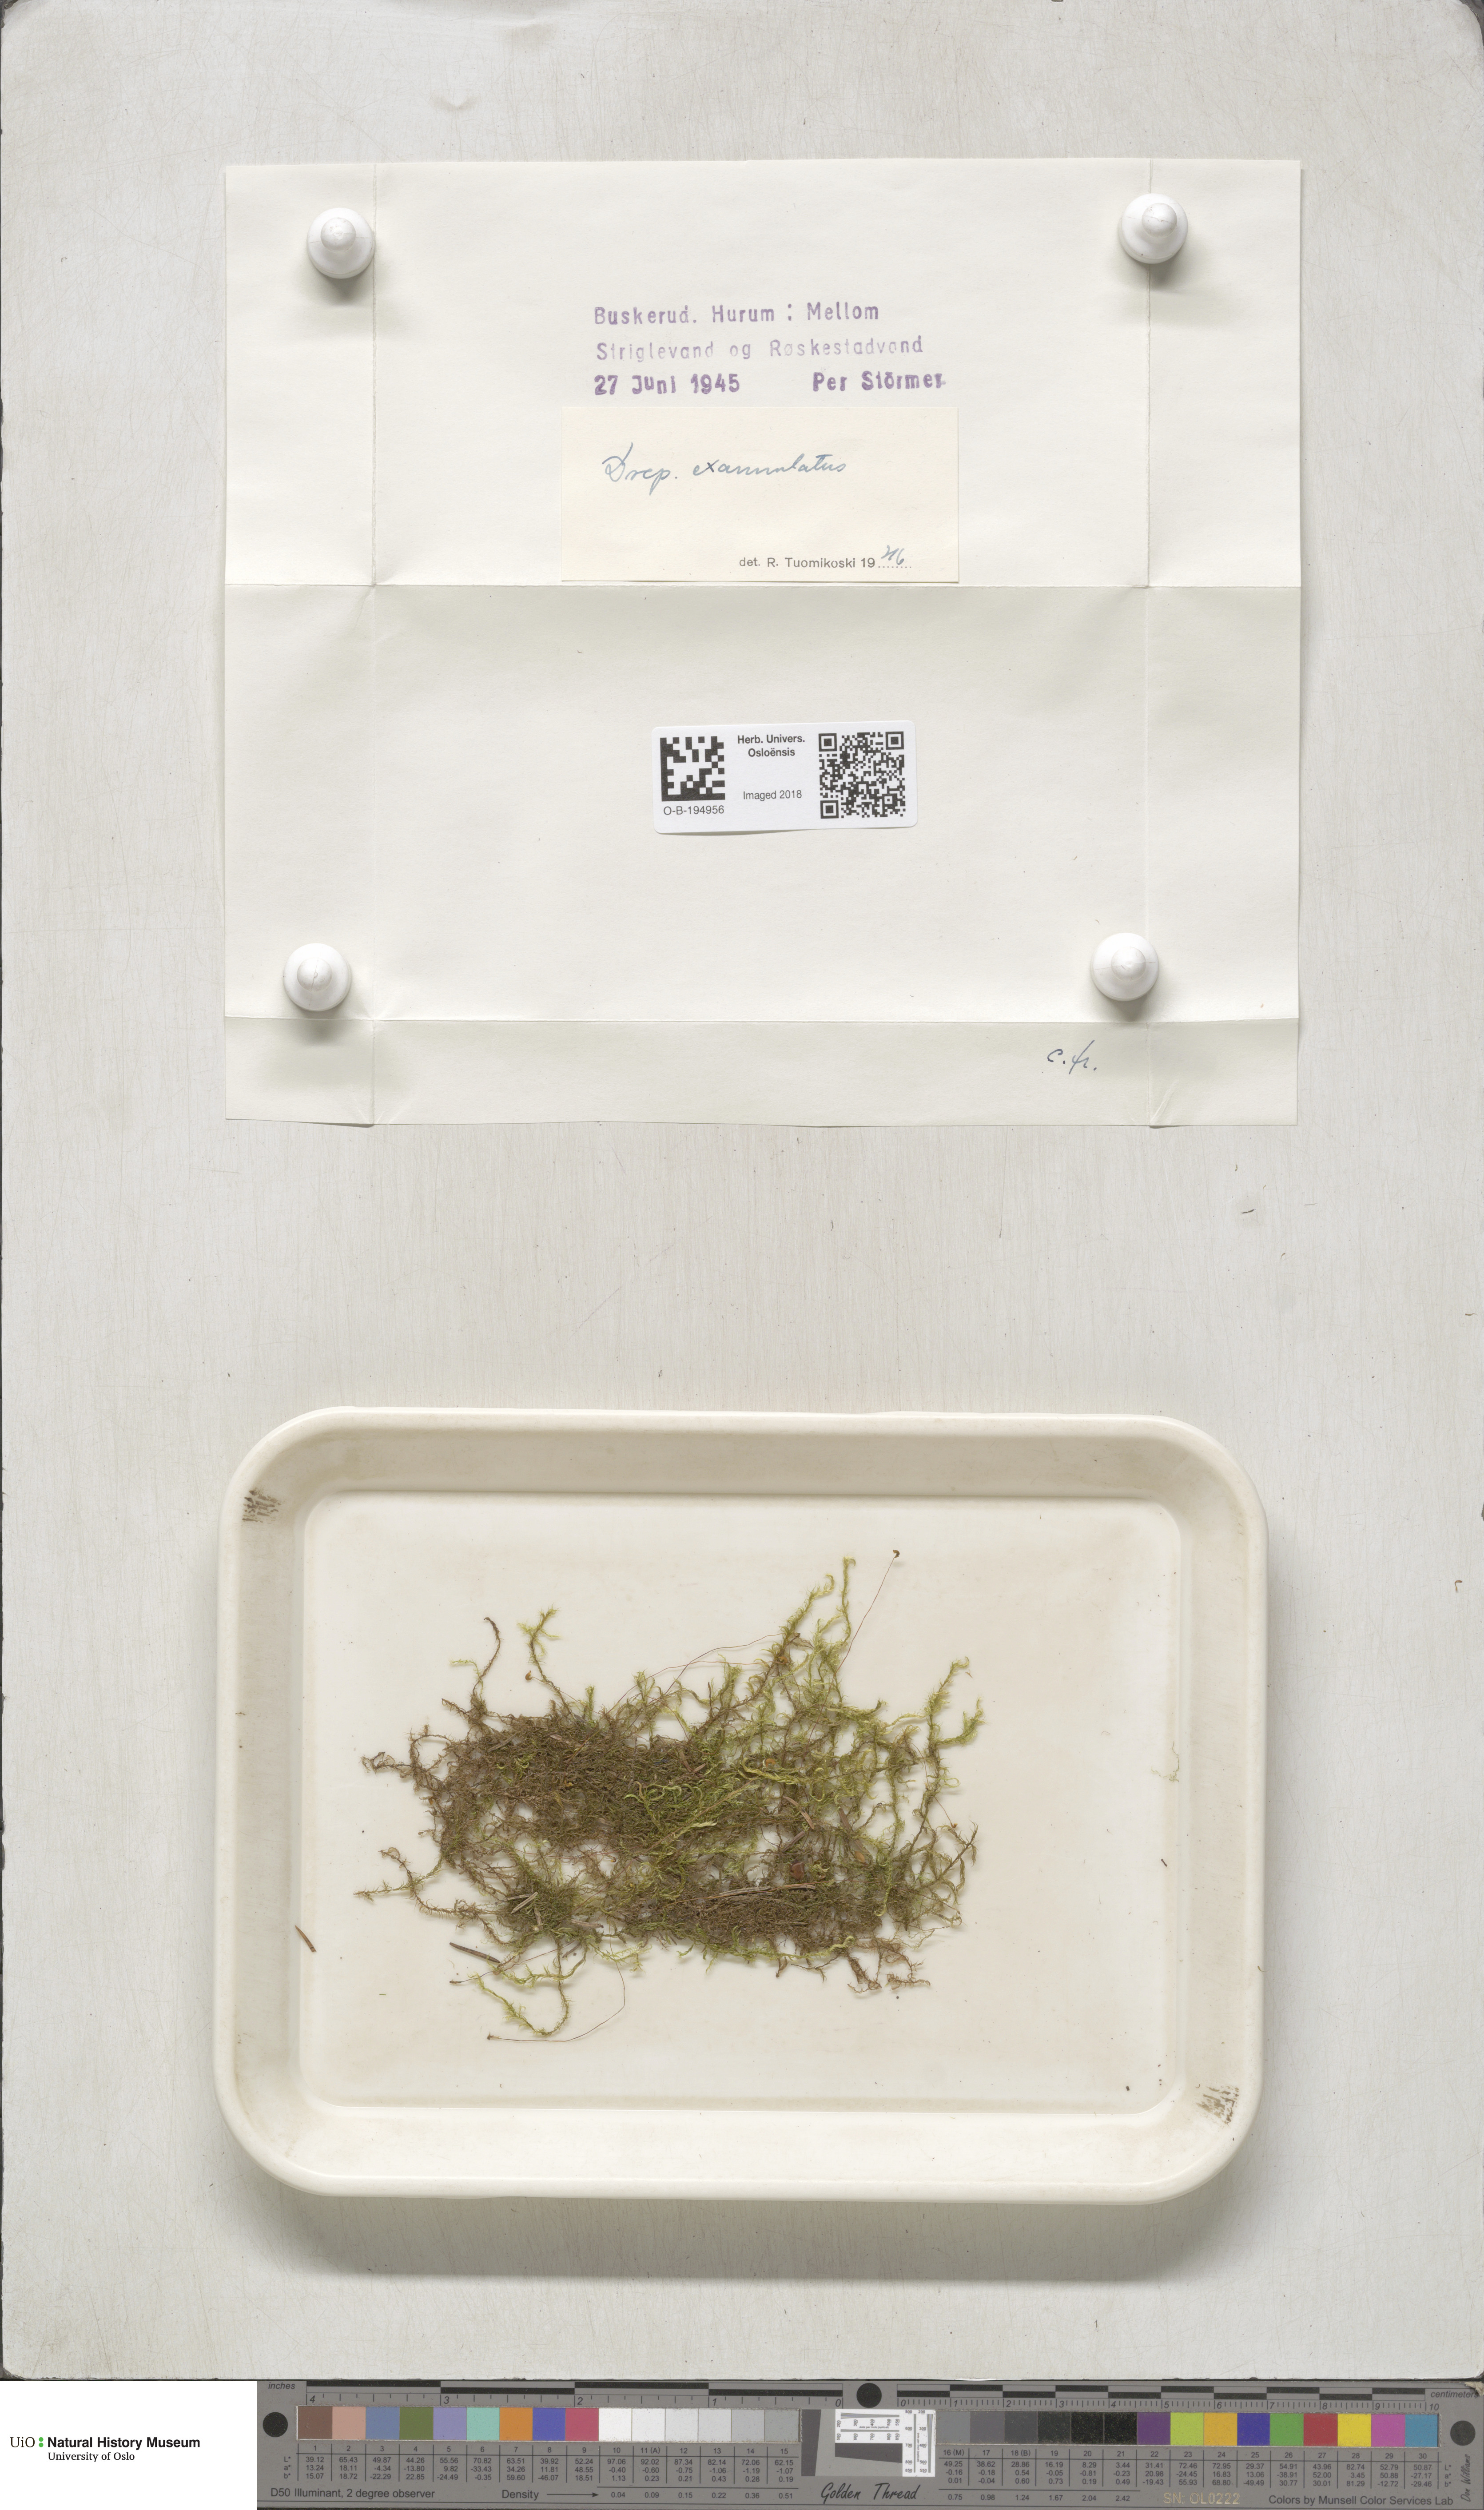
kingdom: Plantae
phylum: Bryophyta
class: Bryopsida
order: Hypnales
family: Calliergonaceae
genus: Sarmentypnum
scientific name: Sarmentypnum exannulatum
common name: Ringless spoon moss
